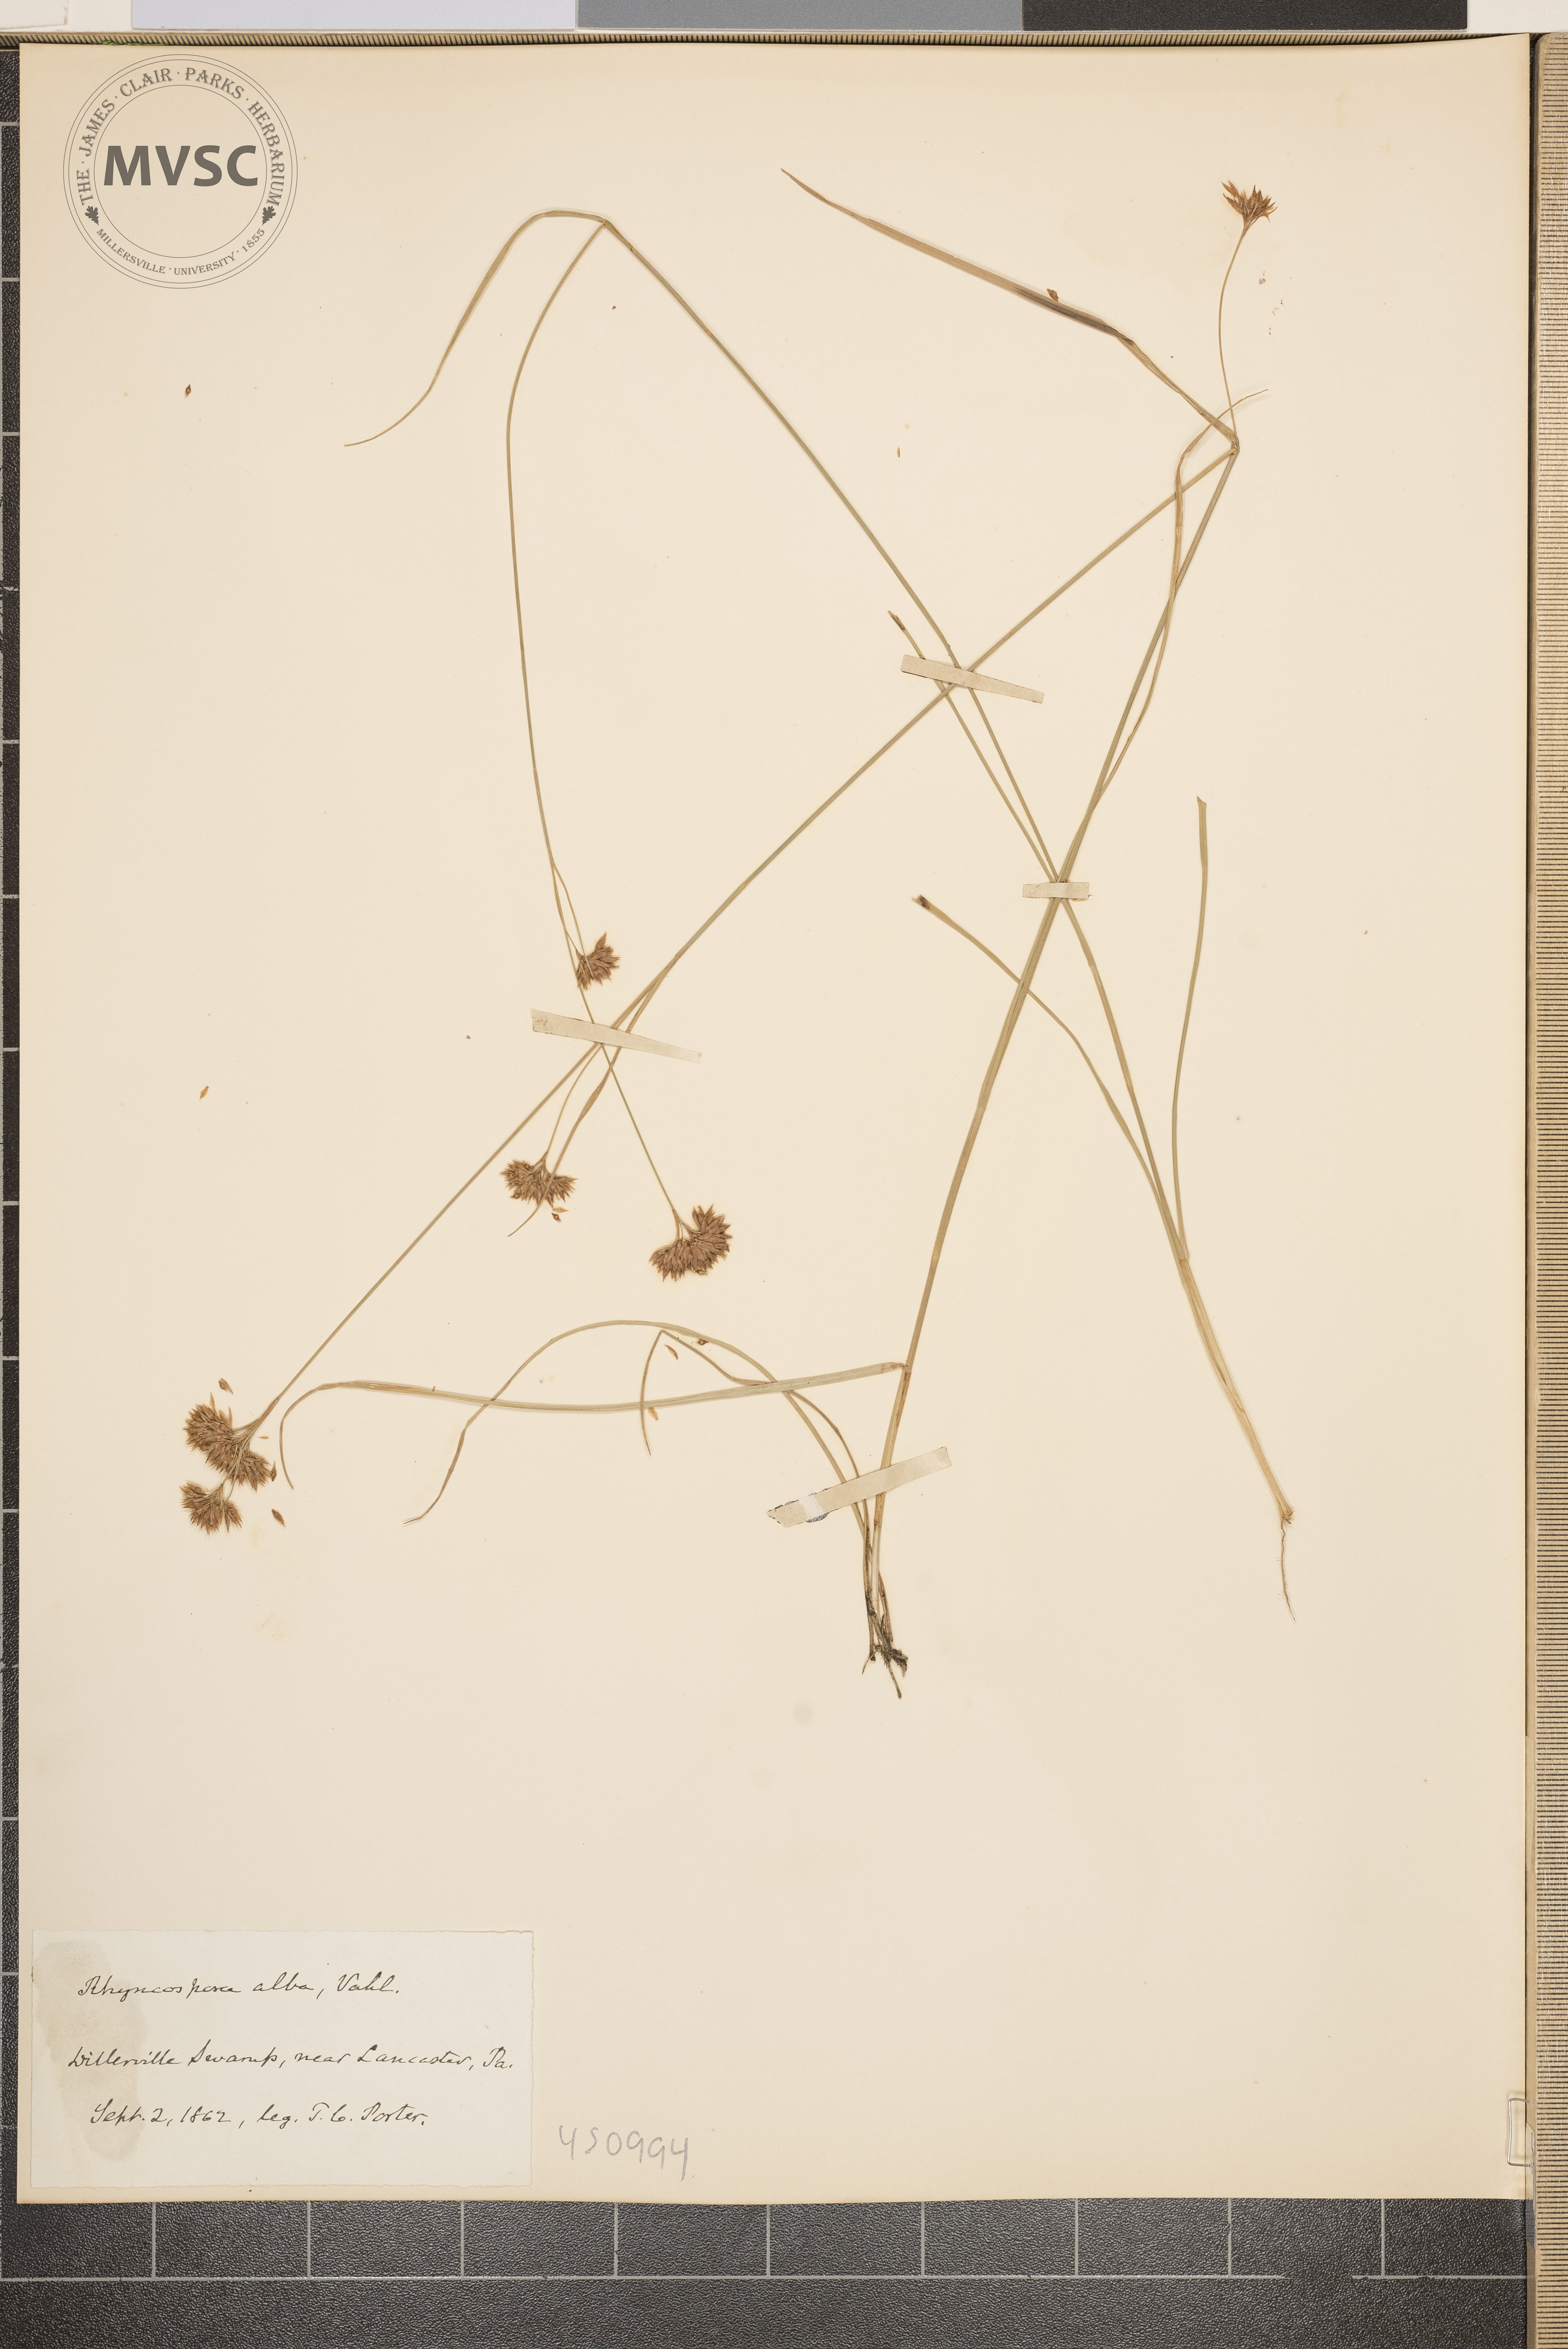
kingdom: Plantae
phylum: Tracheophyta
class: Liliopsida
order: Poales
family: Cyperaceae
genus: Rhynchospora
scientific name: Rhynchospora alba
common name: White beak-sedge
